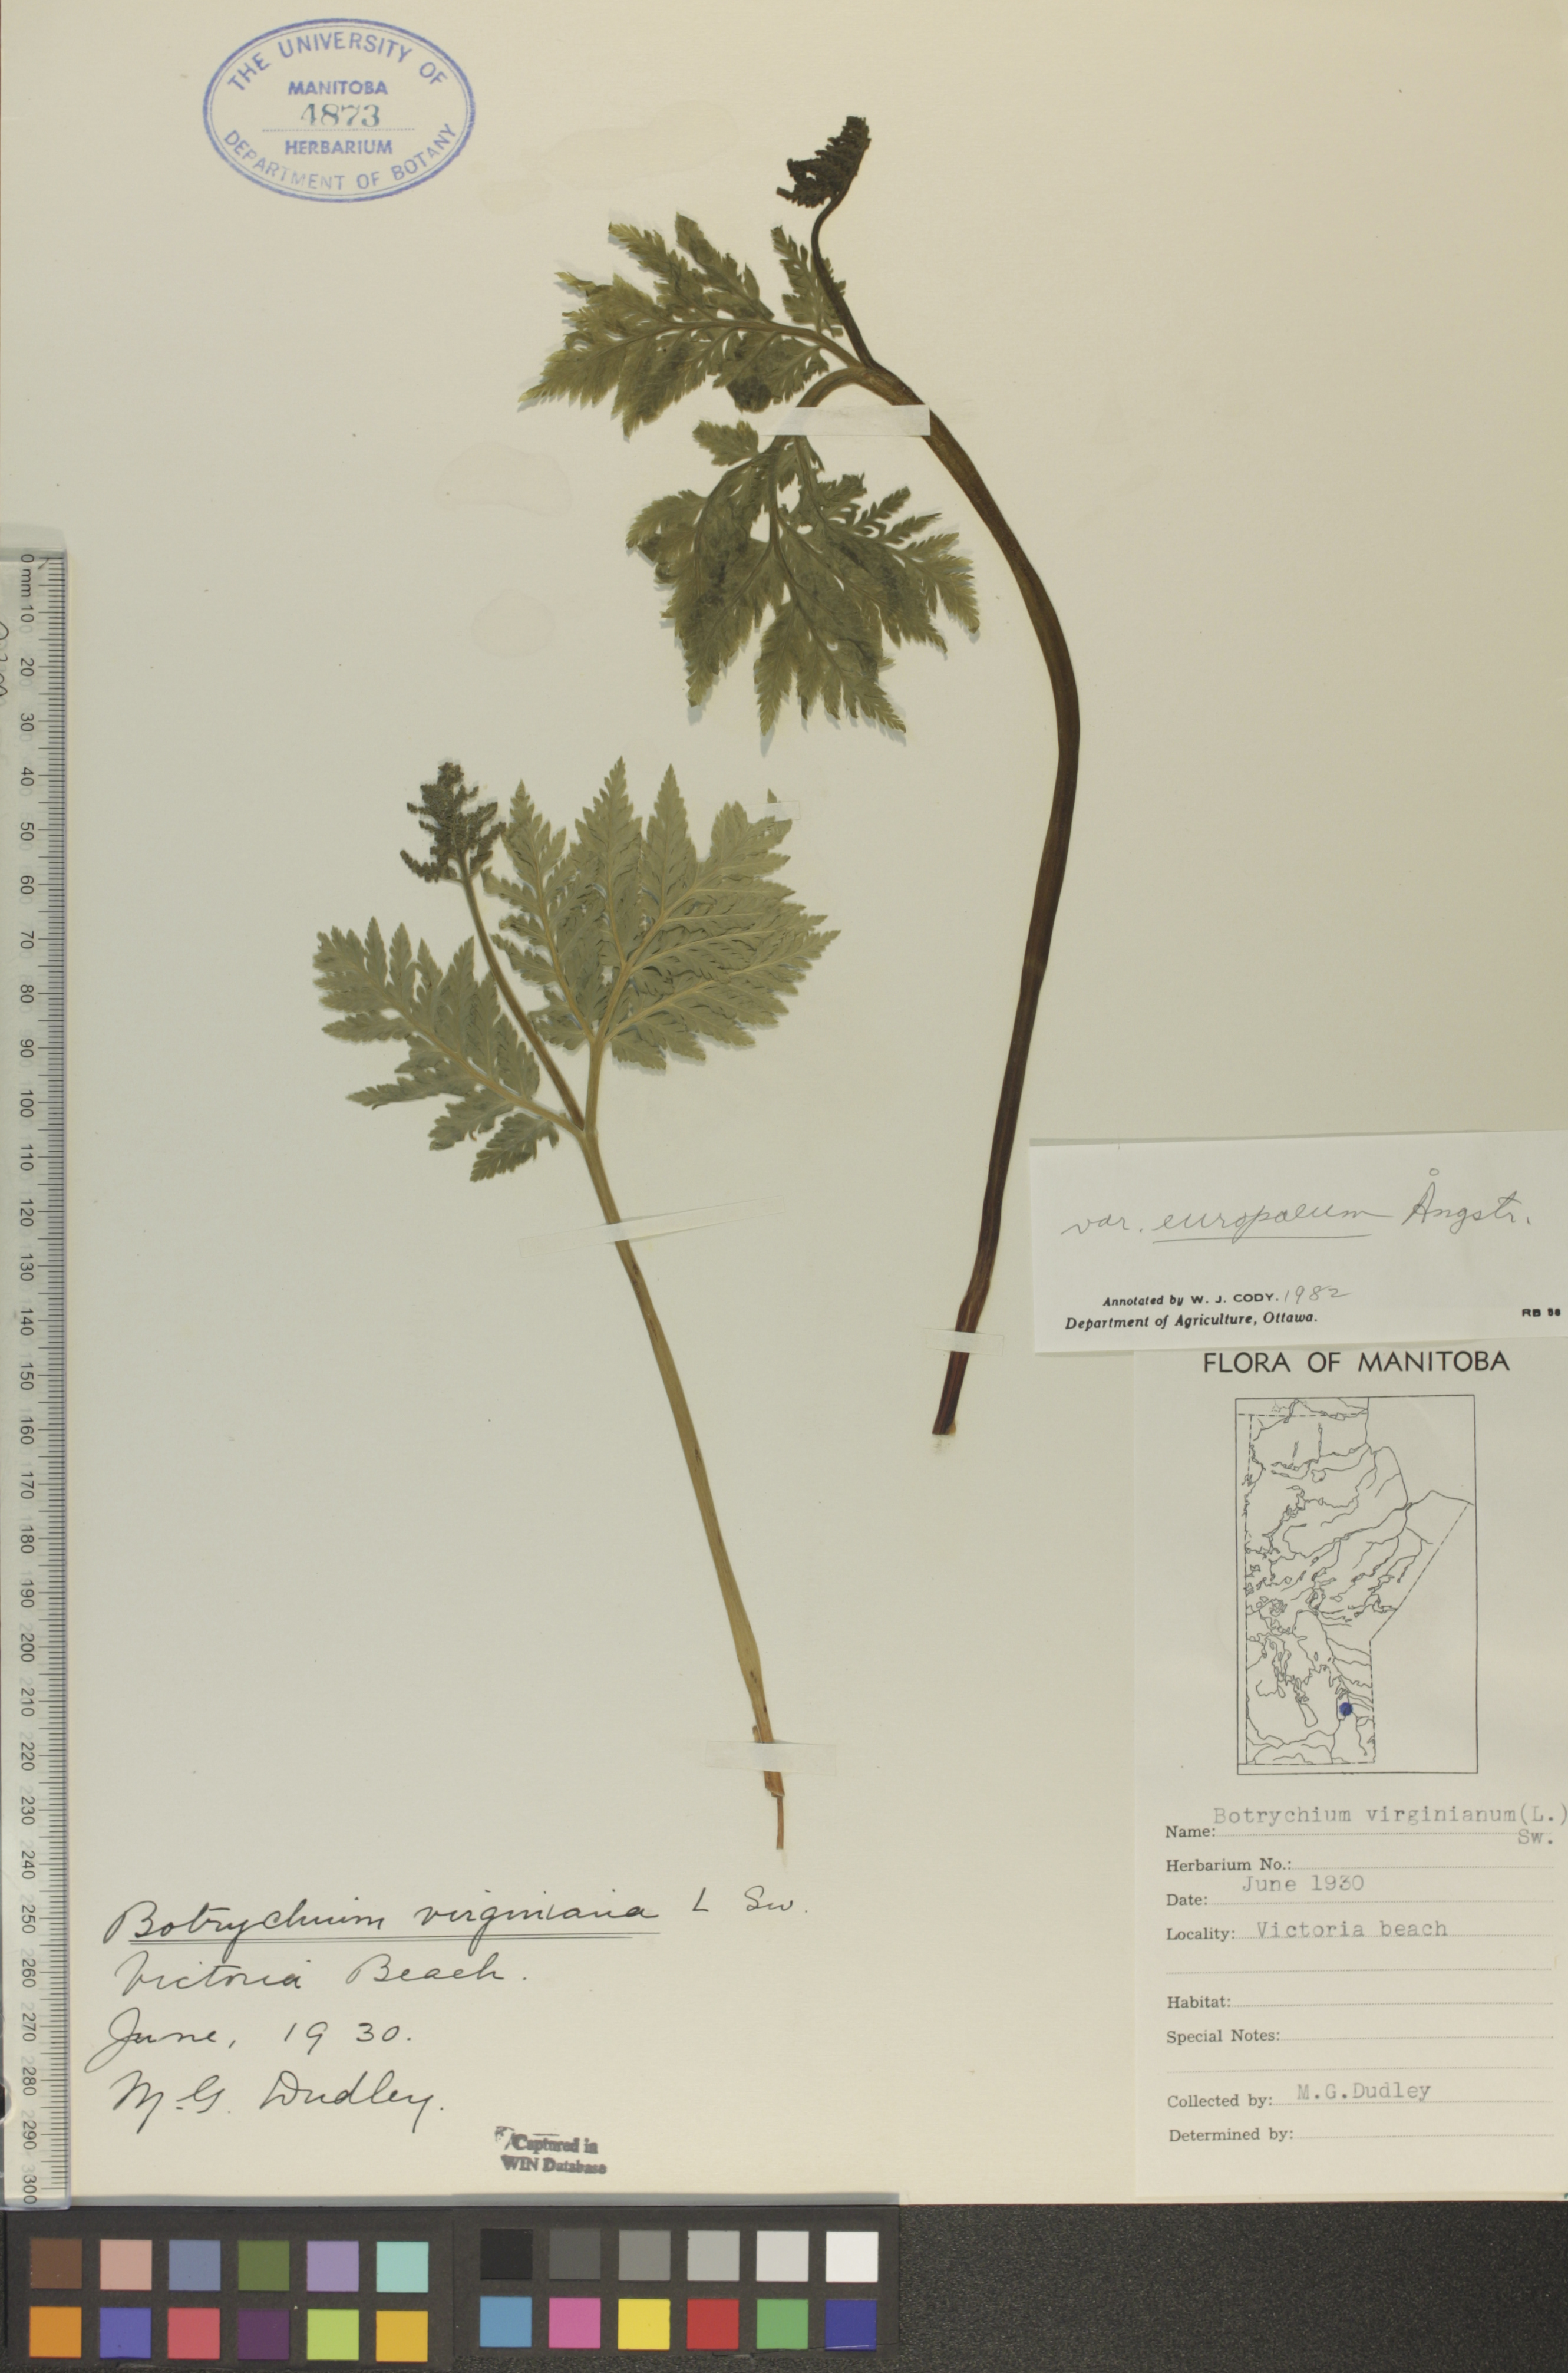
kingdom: Plantae
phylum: Tracheophyta
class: Polypodiopsida
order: Ophioglossales
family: Ophioglossaceae
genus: Botrypus
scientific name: Botrypus virginianus
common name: Common grapefern
